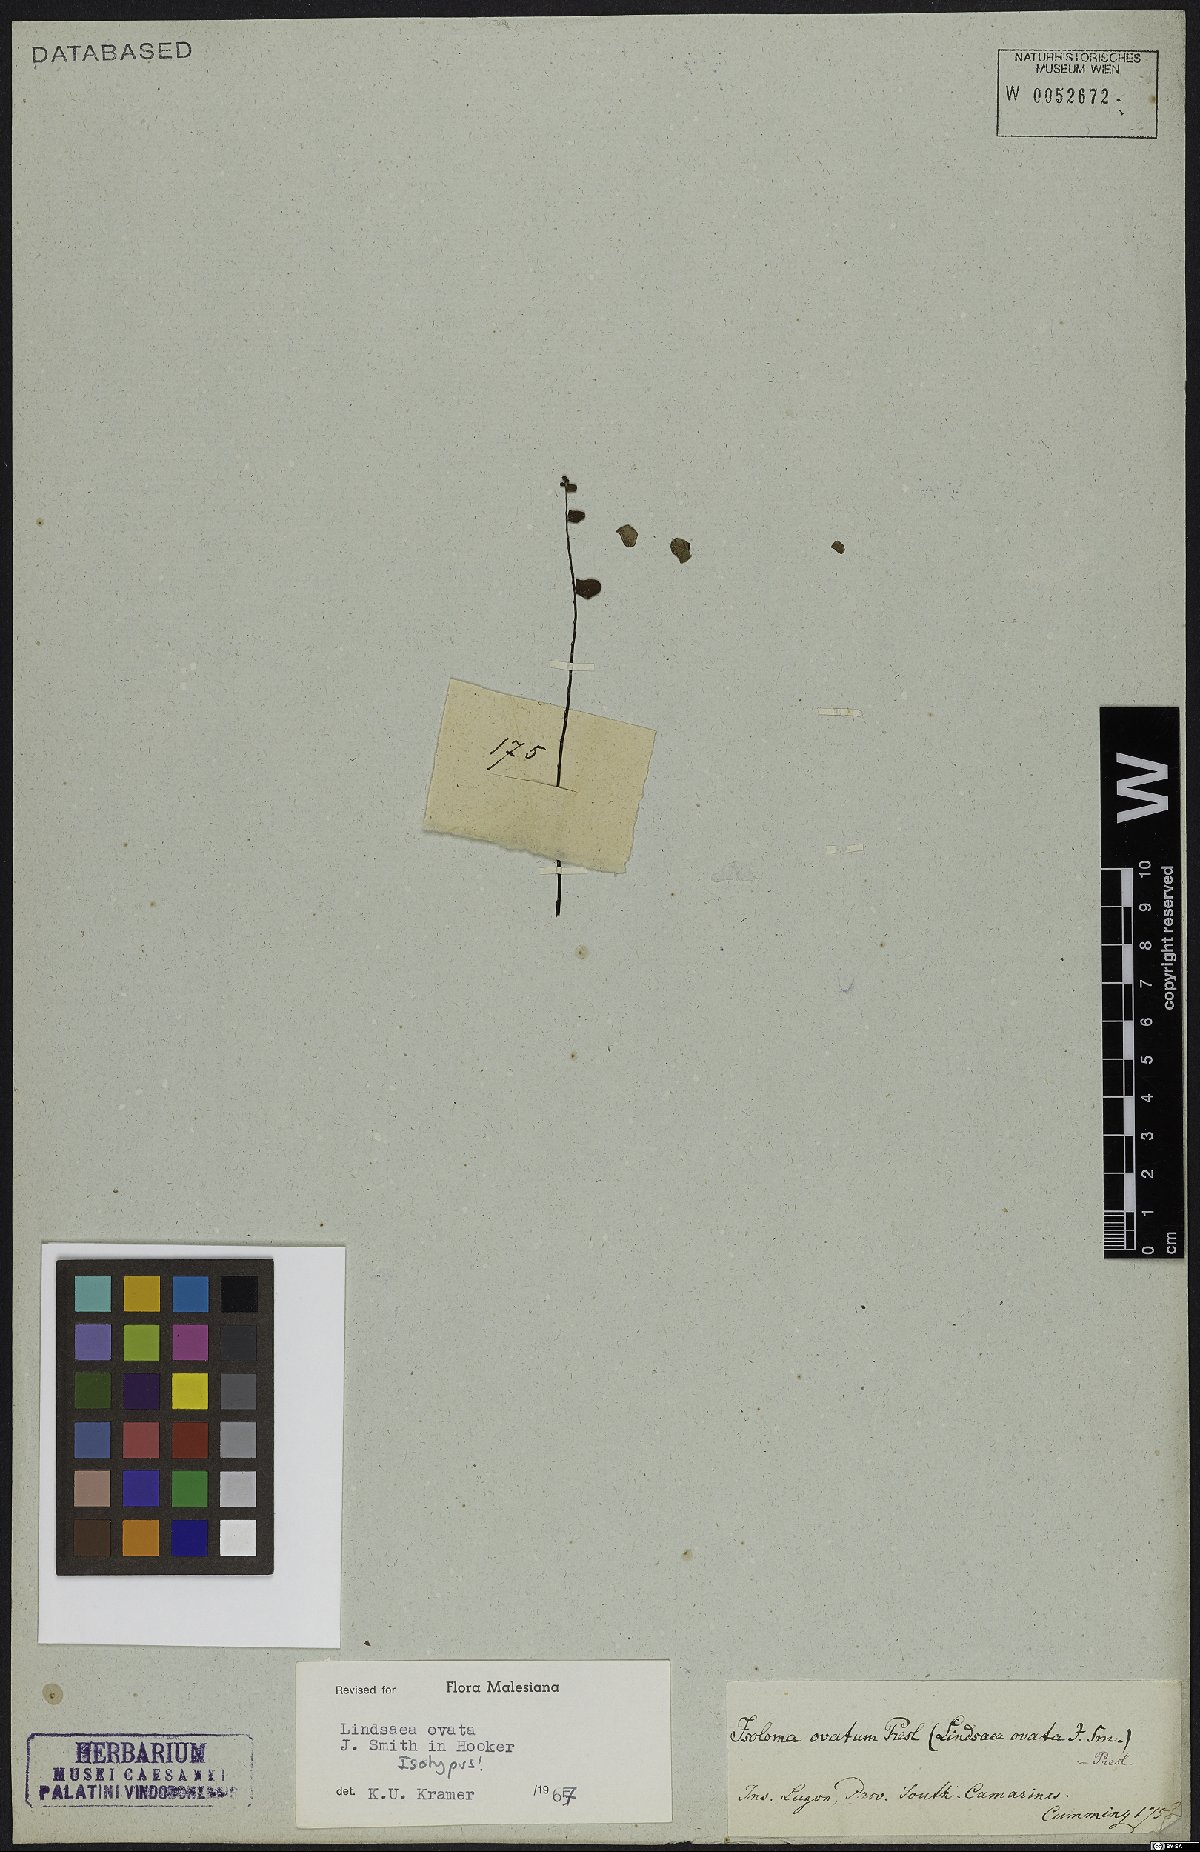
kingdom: Plantae
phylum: Tracheophyta
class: Polypodiopsida
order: Polypodiales
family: Lindsaeaceae
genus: Lindsaea
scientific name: Lindsaea ovata
